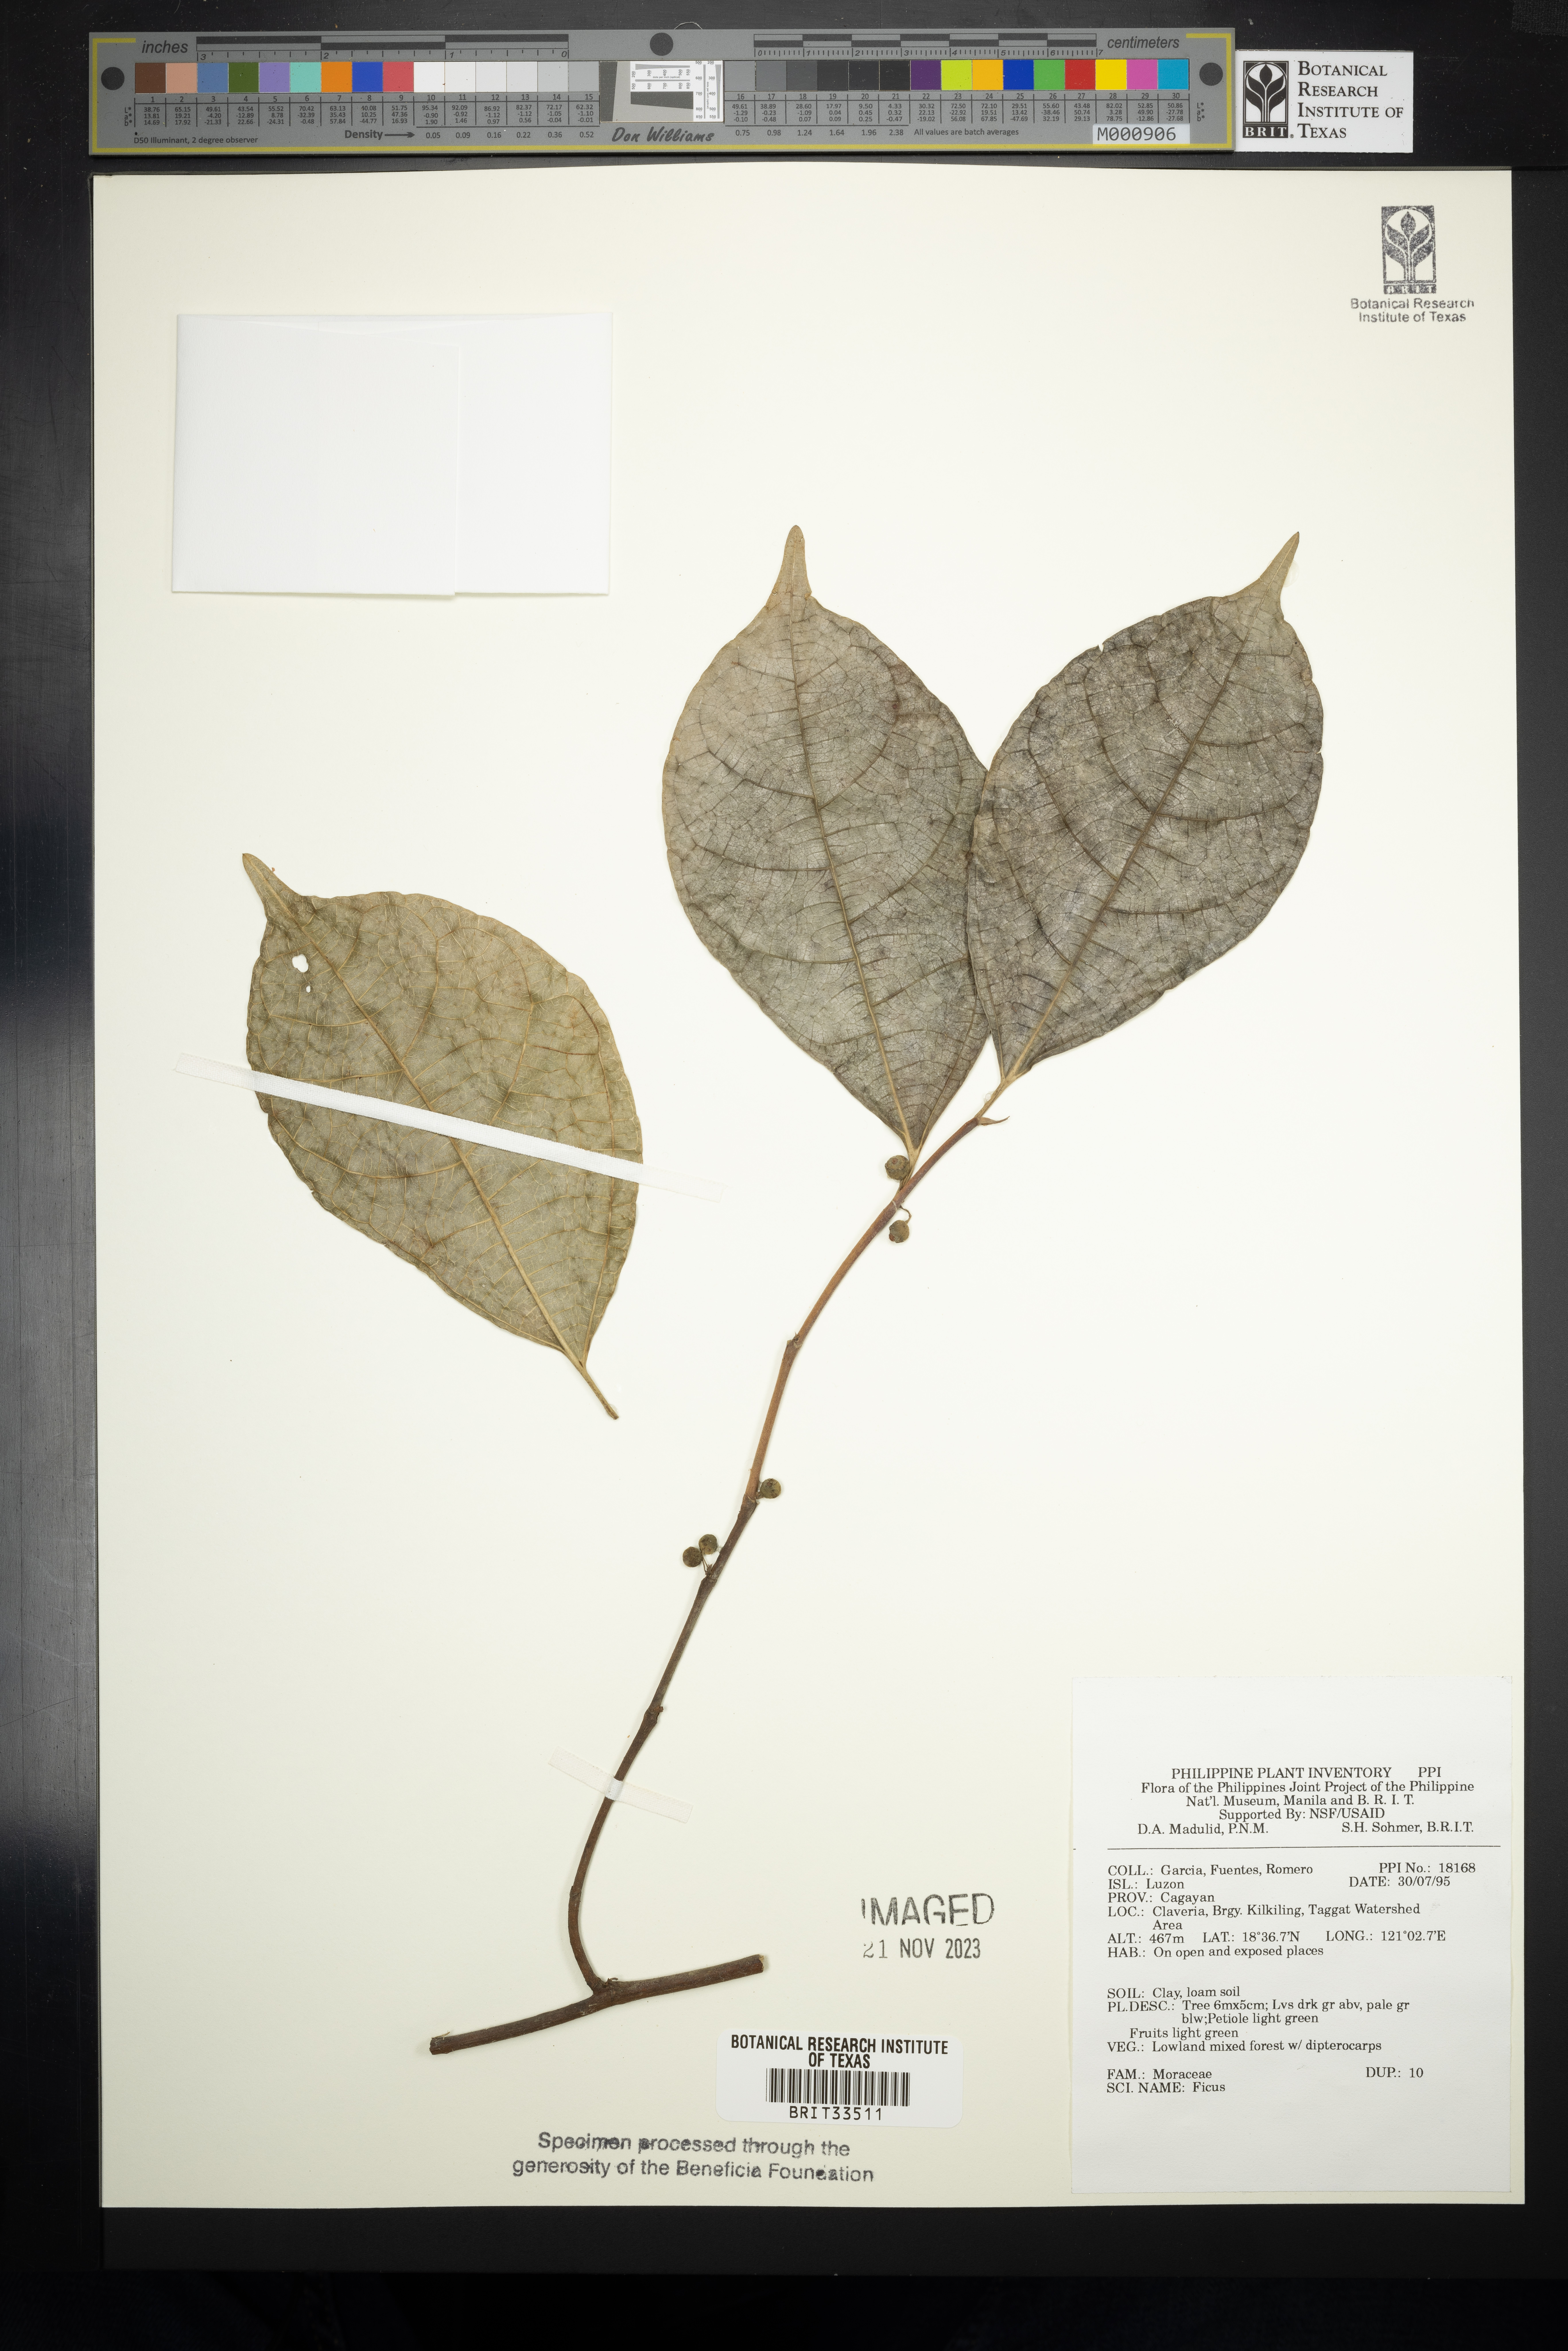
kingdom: Plantae
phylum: Tracheophyta
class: Magnoliopsida
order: Rosales
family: Moraceae
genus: Ficus
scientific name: Ficus
